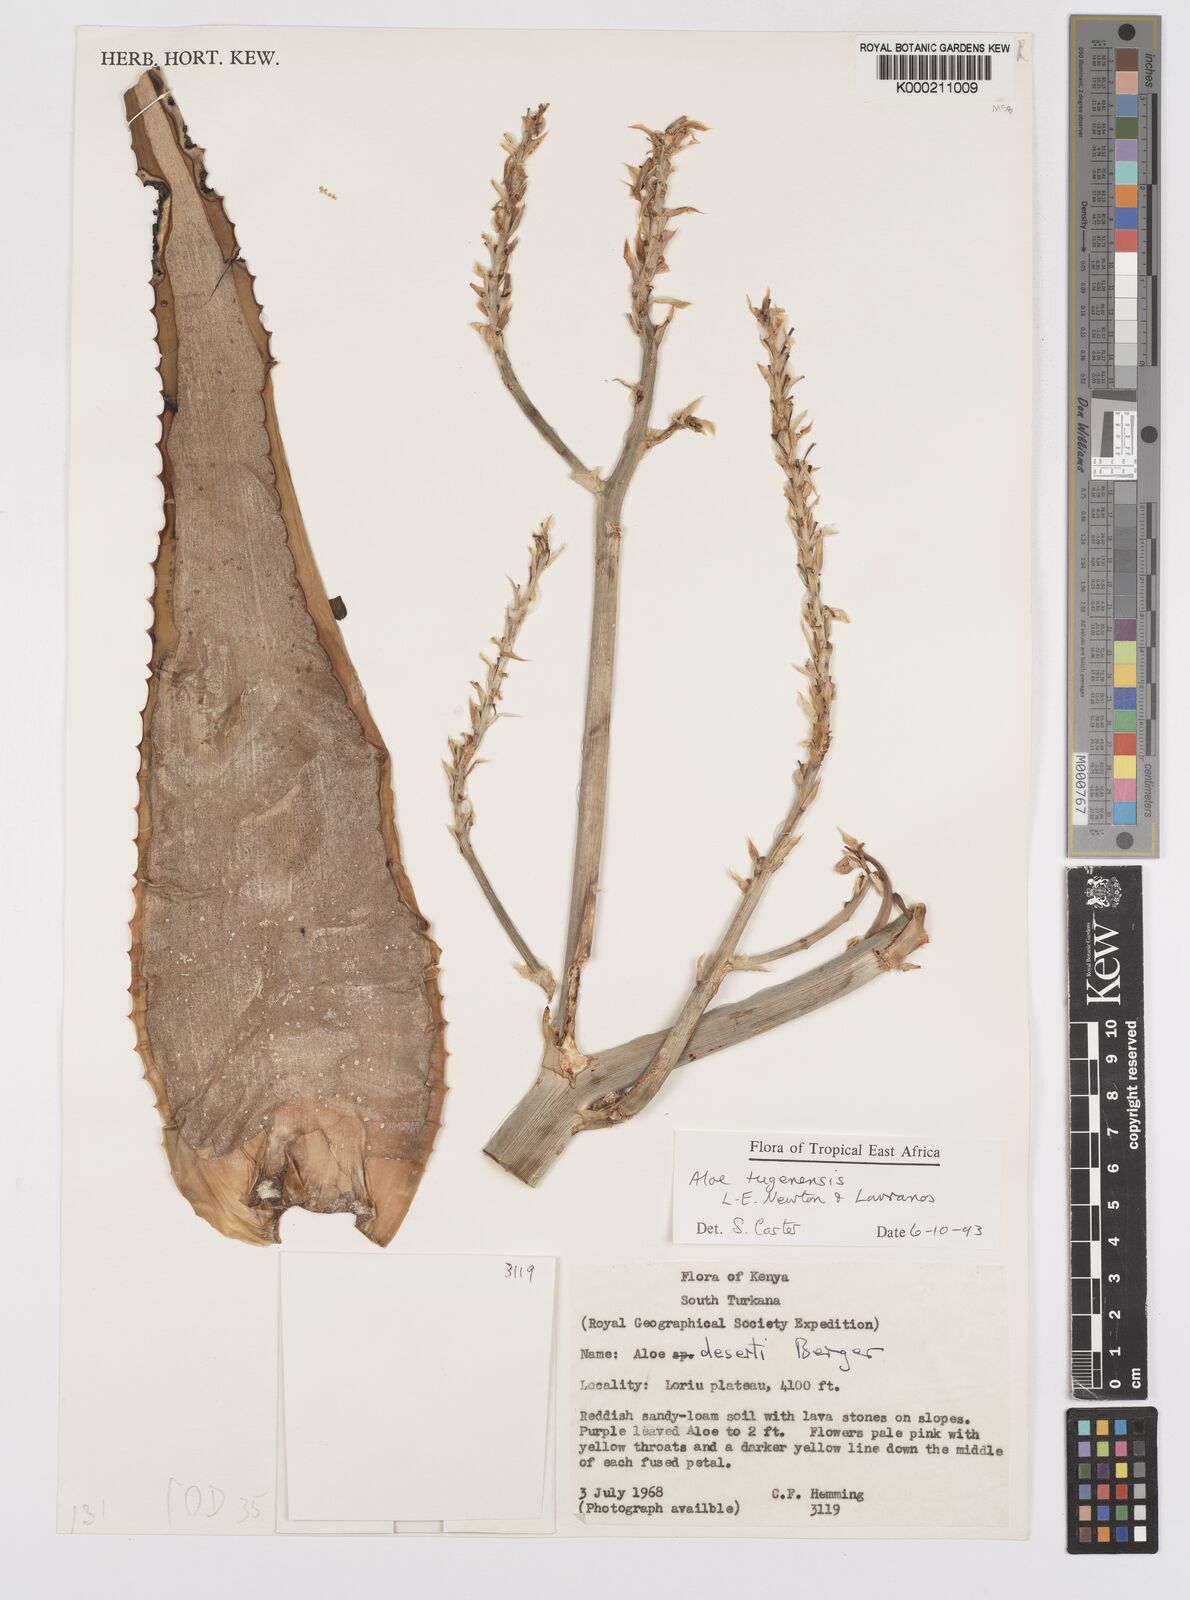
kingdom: Plantae
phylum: Tracheophyta
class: Liliopsida
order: Asparagales
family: Asphodelaceae
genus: Aloe
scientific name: Aloe archeri
